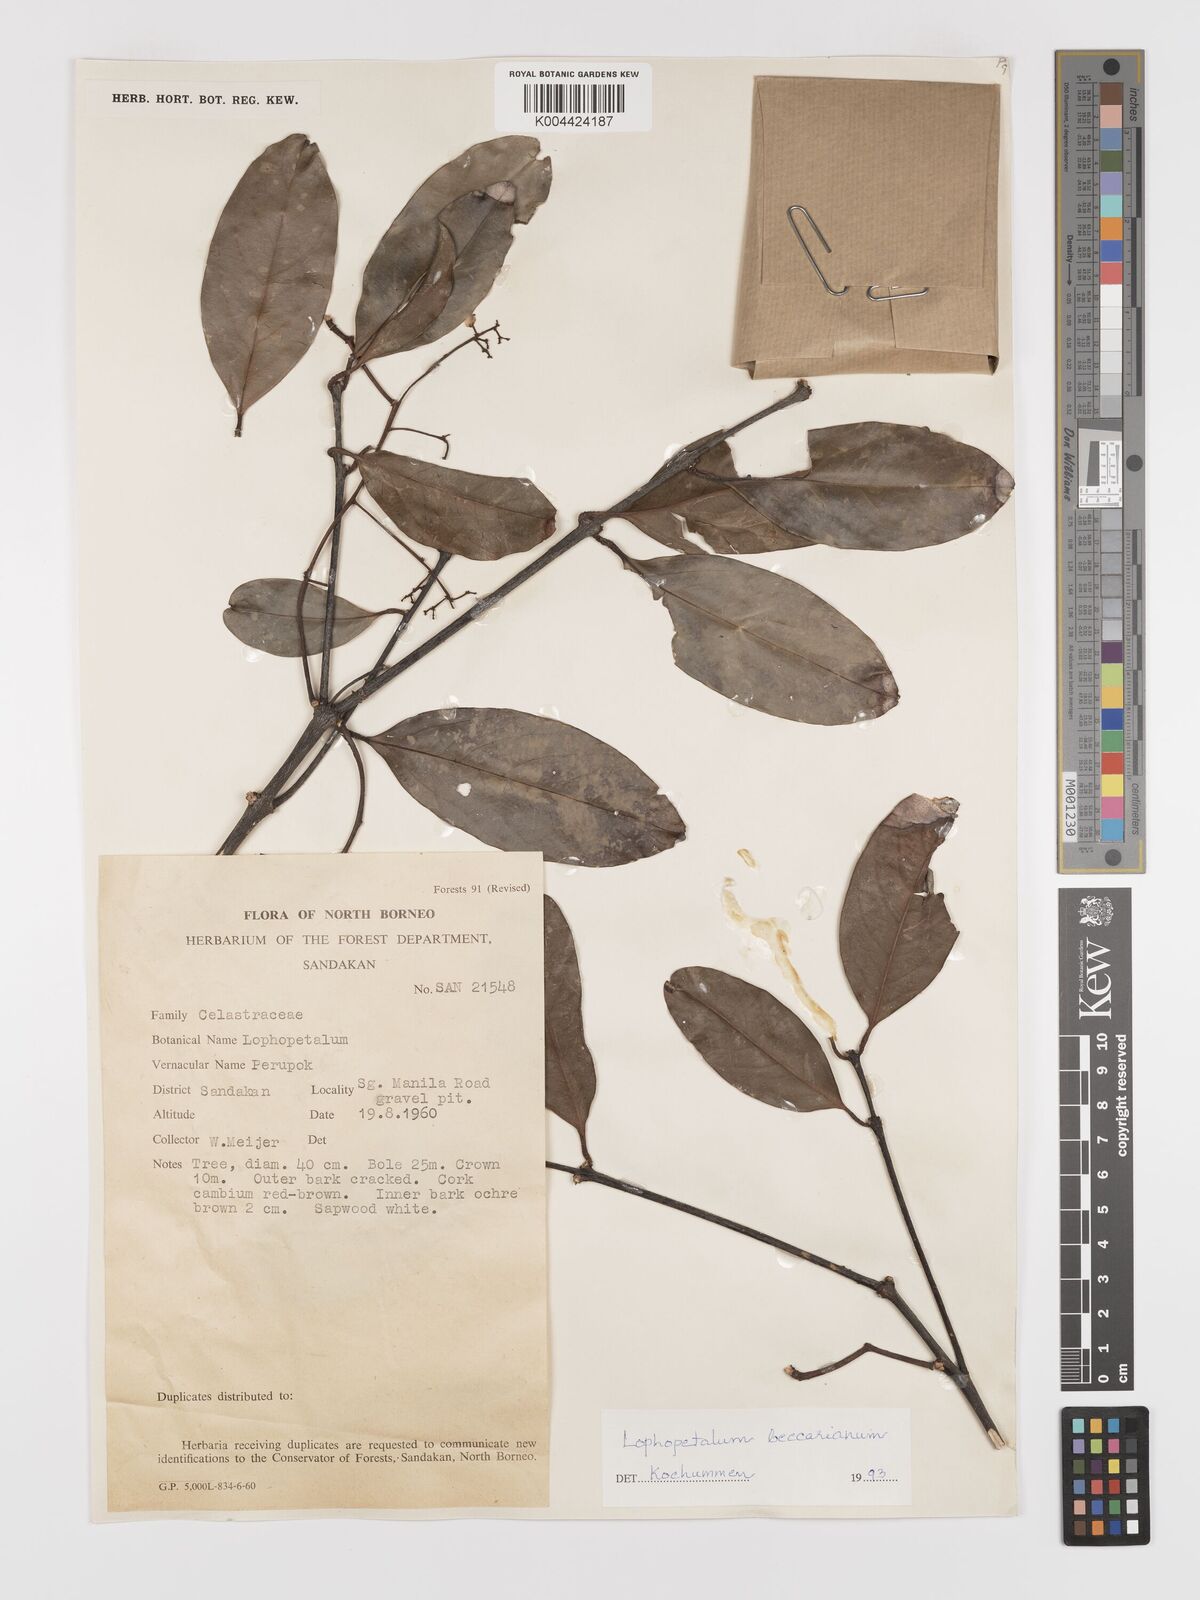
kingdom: Plantae
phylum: Tracheophyta
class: Magnoliopsida
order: Celastrales
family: Celastraceae
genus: Lophopetalum
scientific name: Lophopetalum beccarianum
